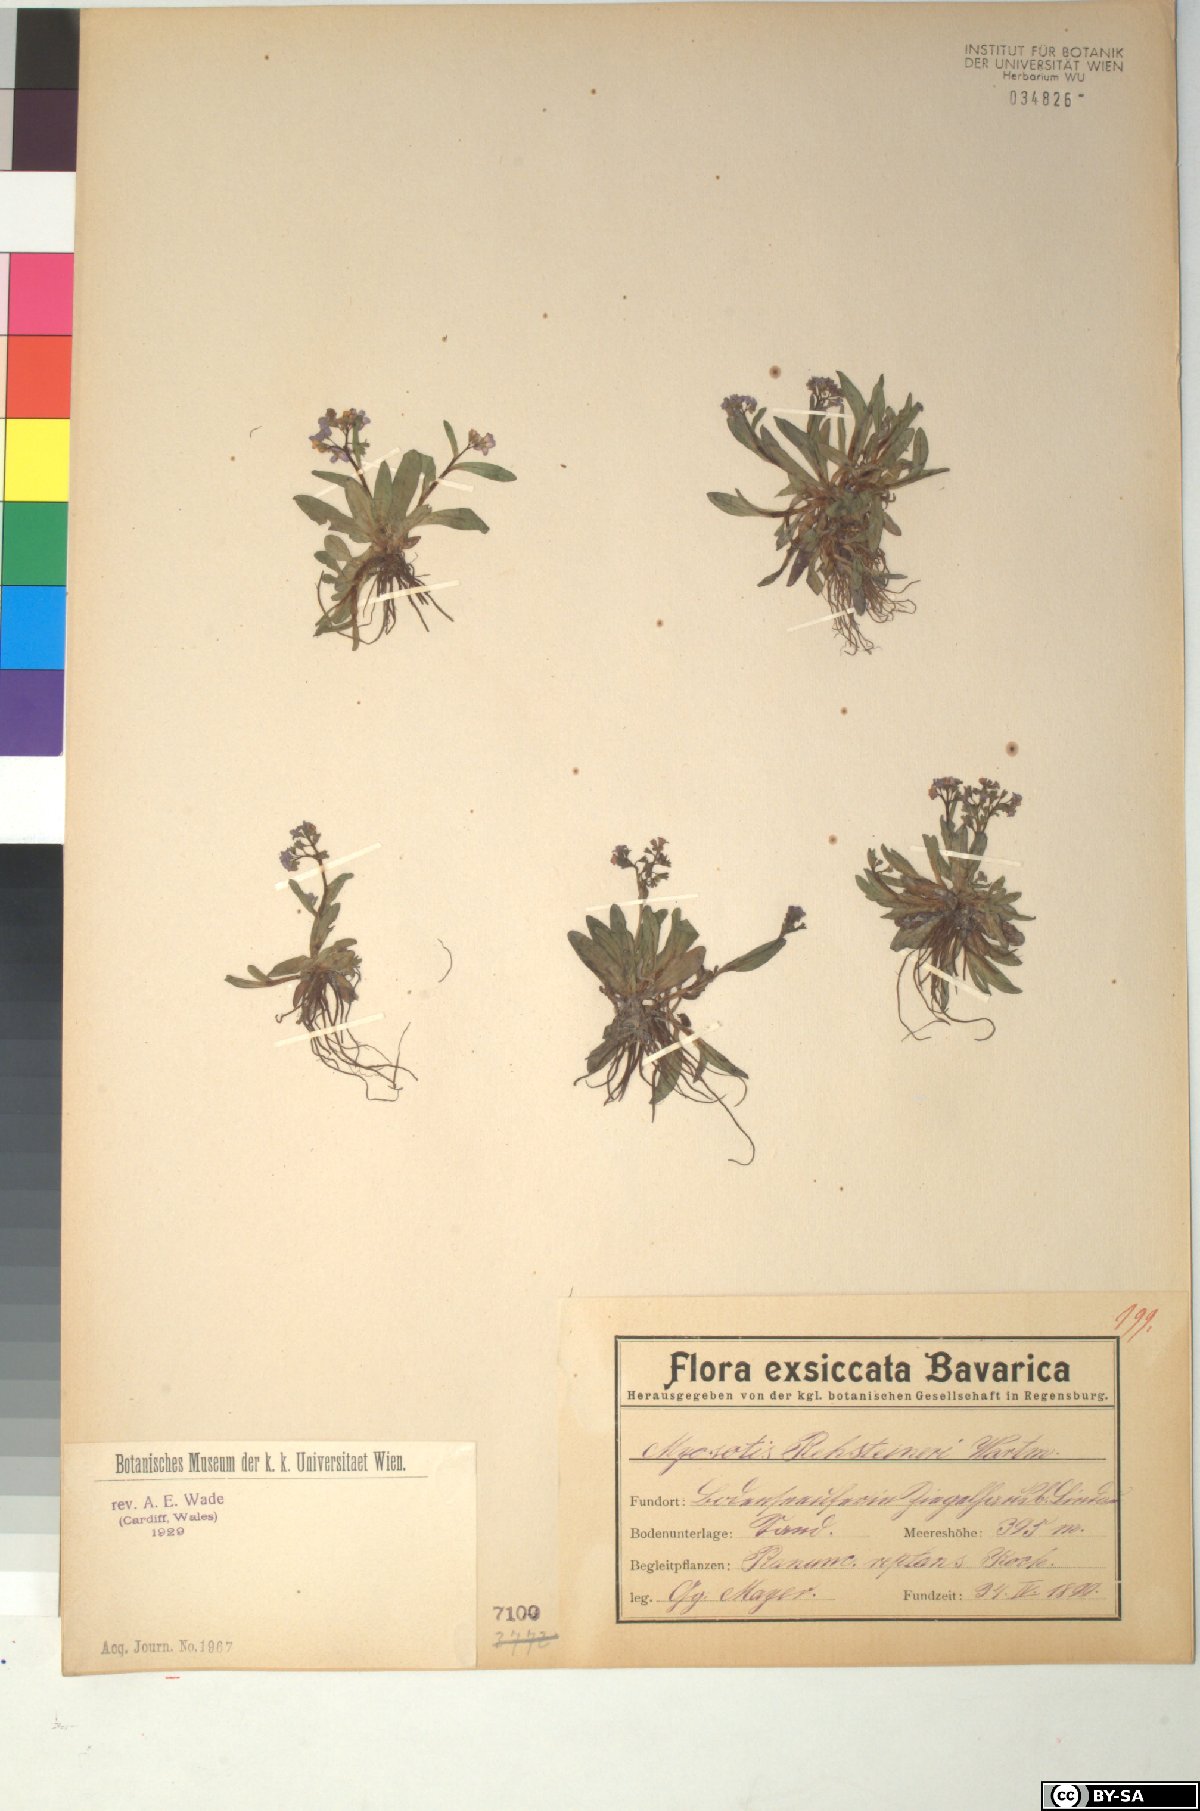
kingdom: Plantae
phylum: Tracheophyta
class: Magnoliopsida
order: Boraginales
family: Boraginaceae
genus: Myosotis
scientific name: Myosotis rehsteineri
